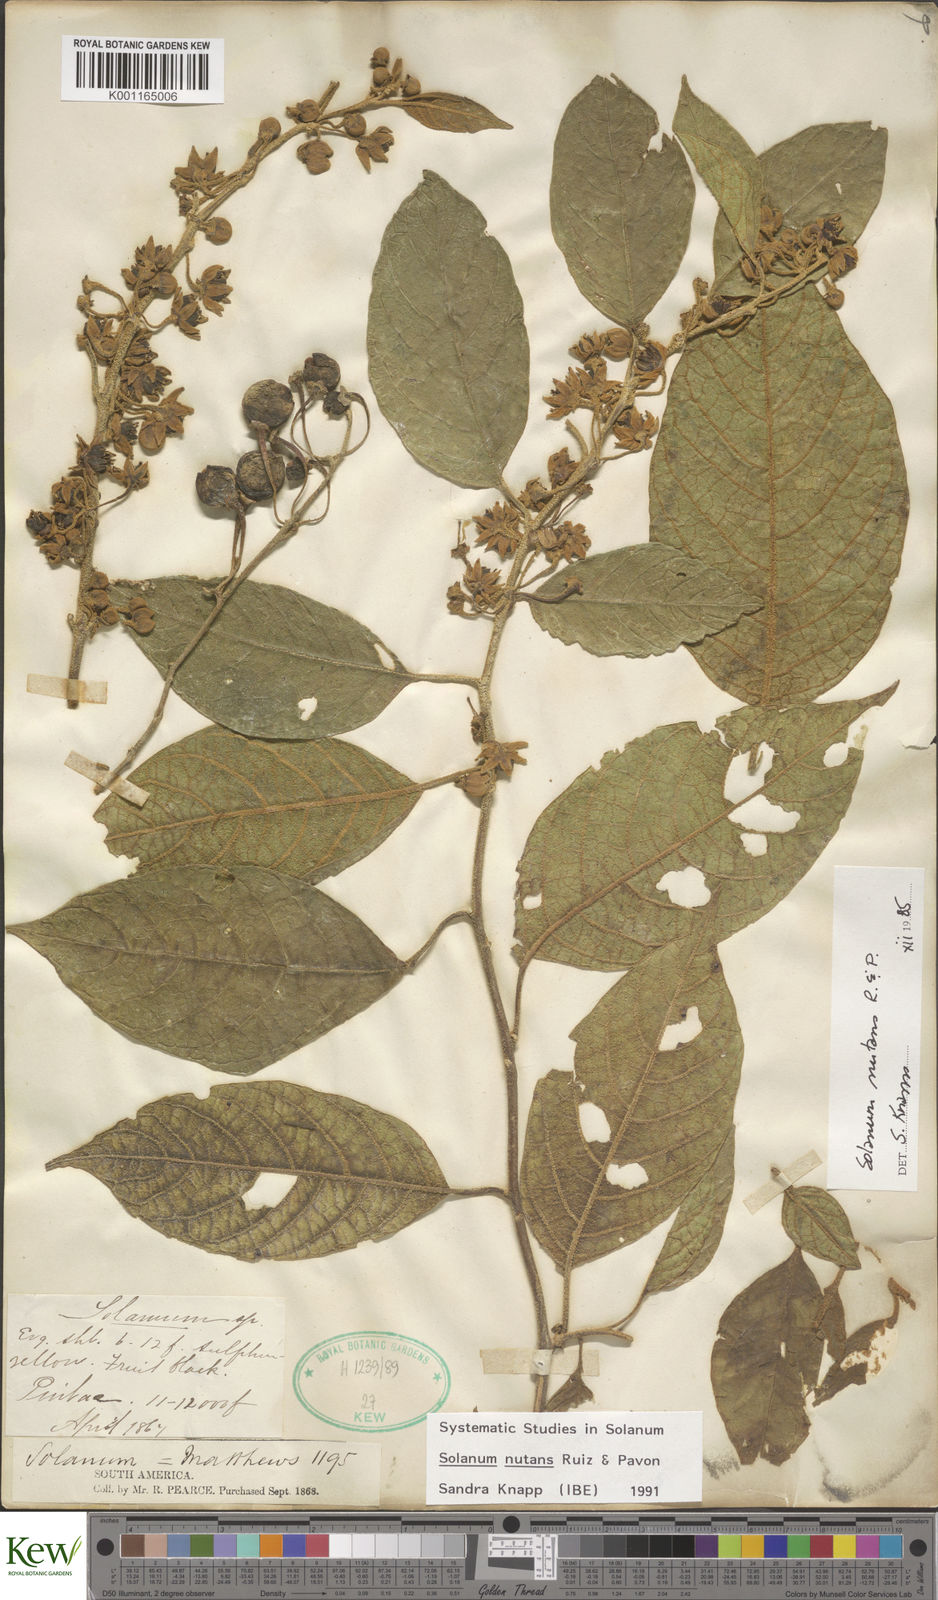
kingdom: Plantae
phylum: Tracheophyta
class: Magnoliopsida
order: Solanales
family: Solanaceae
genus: Solanum
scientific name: Solanum nutans
